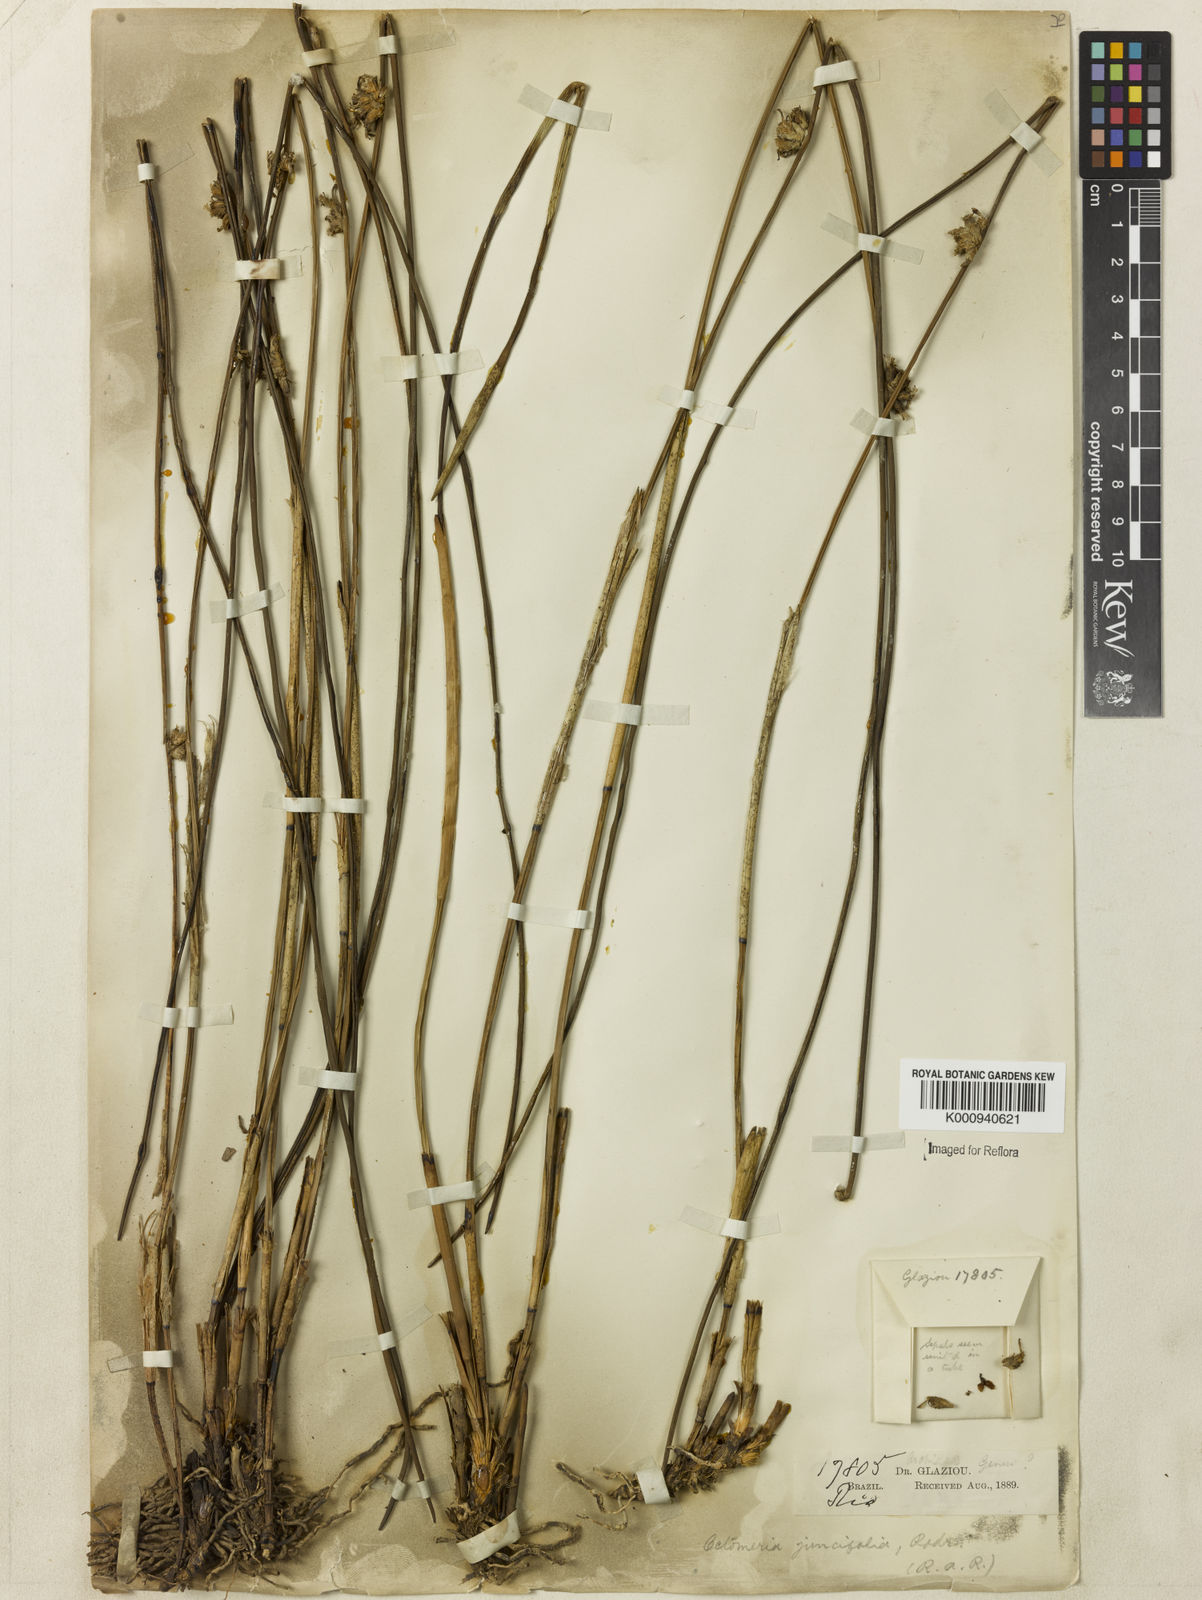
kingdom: Plantae
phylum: Tracheophyta
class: Liliopsida
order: Asparagales
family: Orchidaceae
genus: Octomeria
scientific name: Octomeria juncifolia
